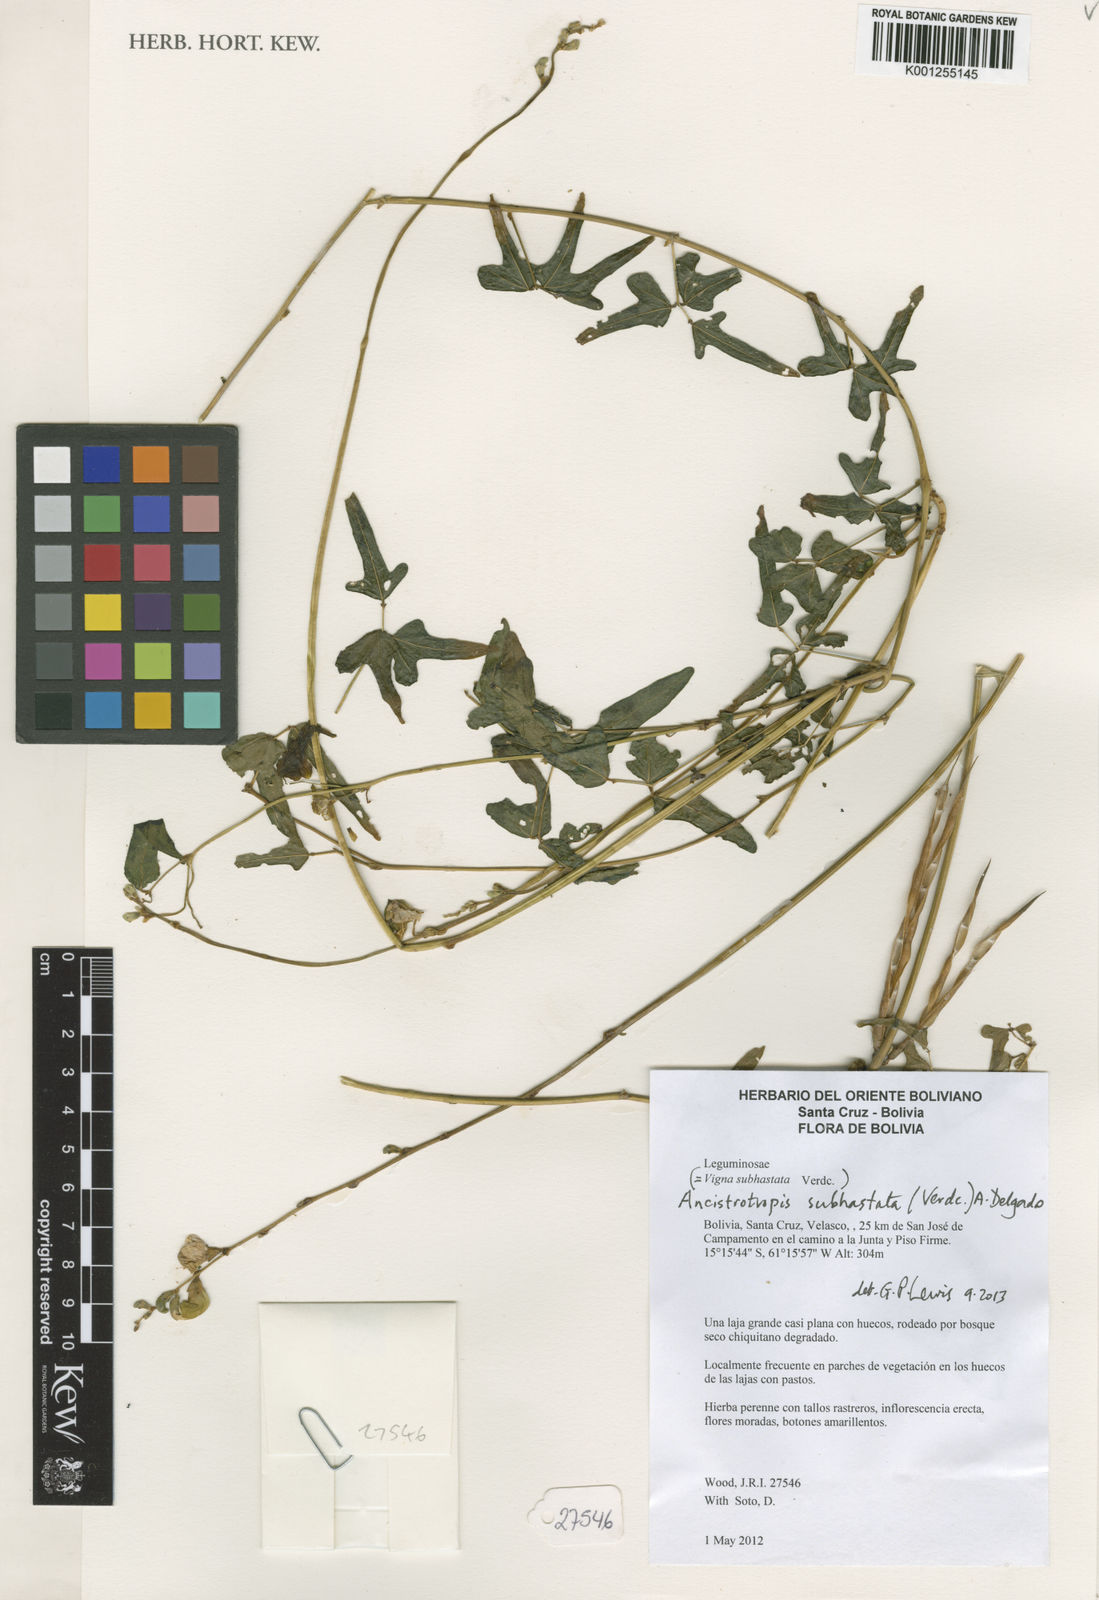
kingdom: Plantae
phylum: Tracheophyta
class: Magnoliopsida
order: Fabales
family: Fabaceae
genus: Ancistrotropis
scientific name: Ancistrotropis subhastata
